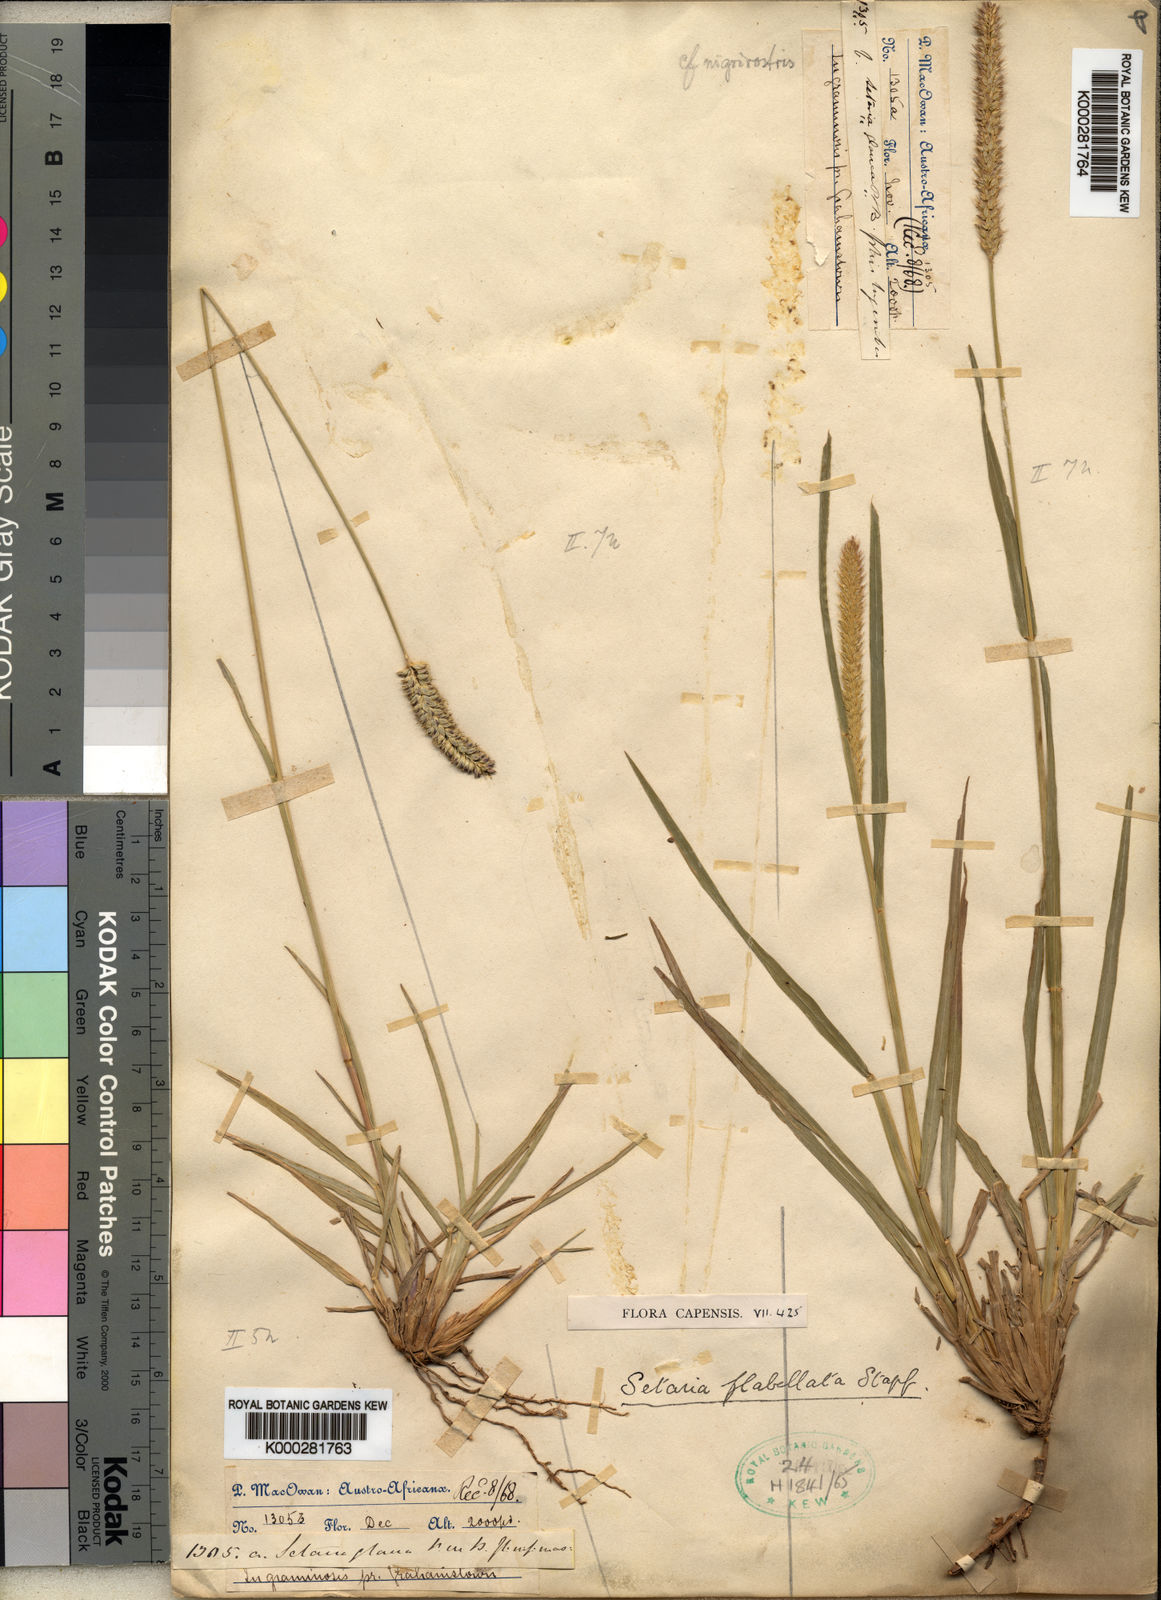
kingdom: Plantae
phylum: Tracheophyta
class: Liliopsida
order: Poales
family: Poaceae
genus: Setaria
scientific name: Setaria sphacelata
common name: African bristlegrass
